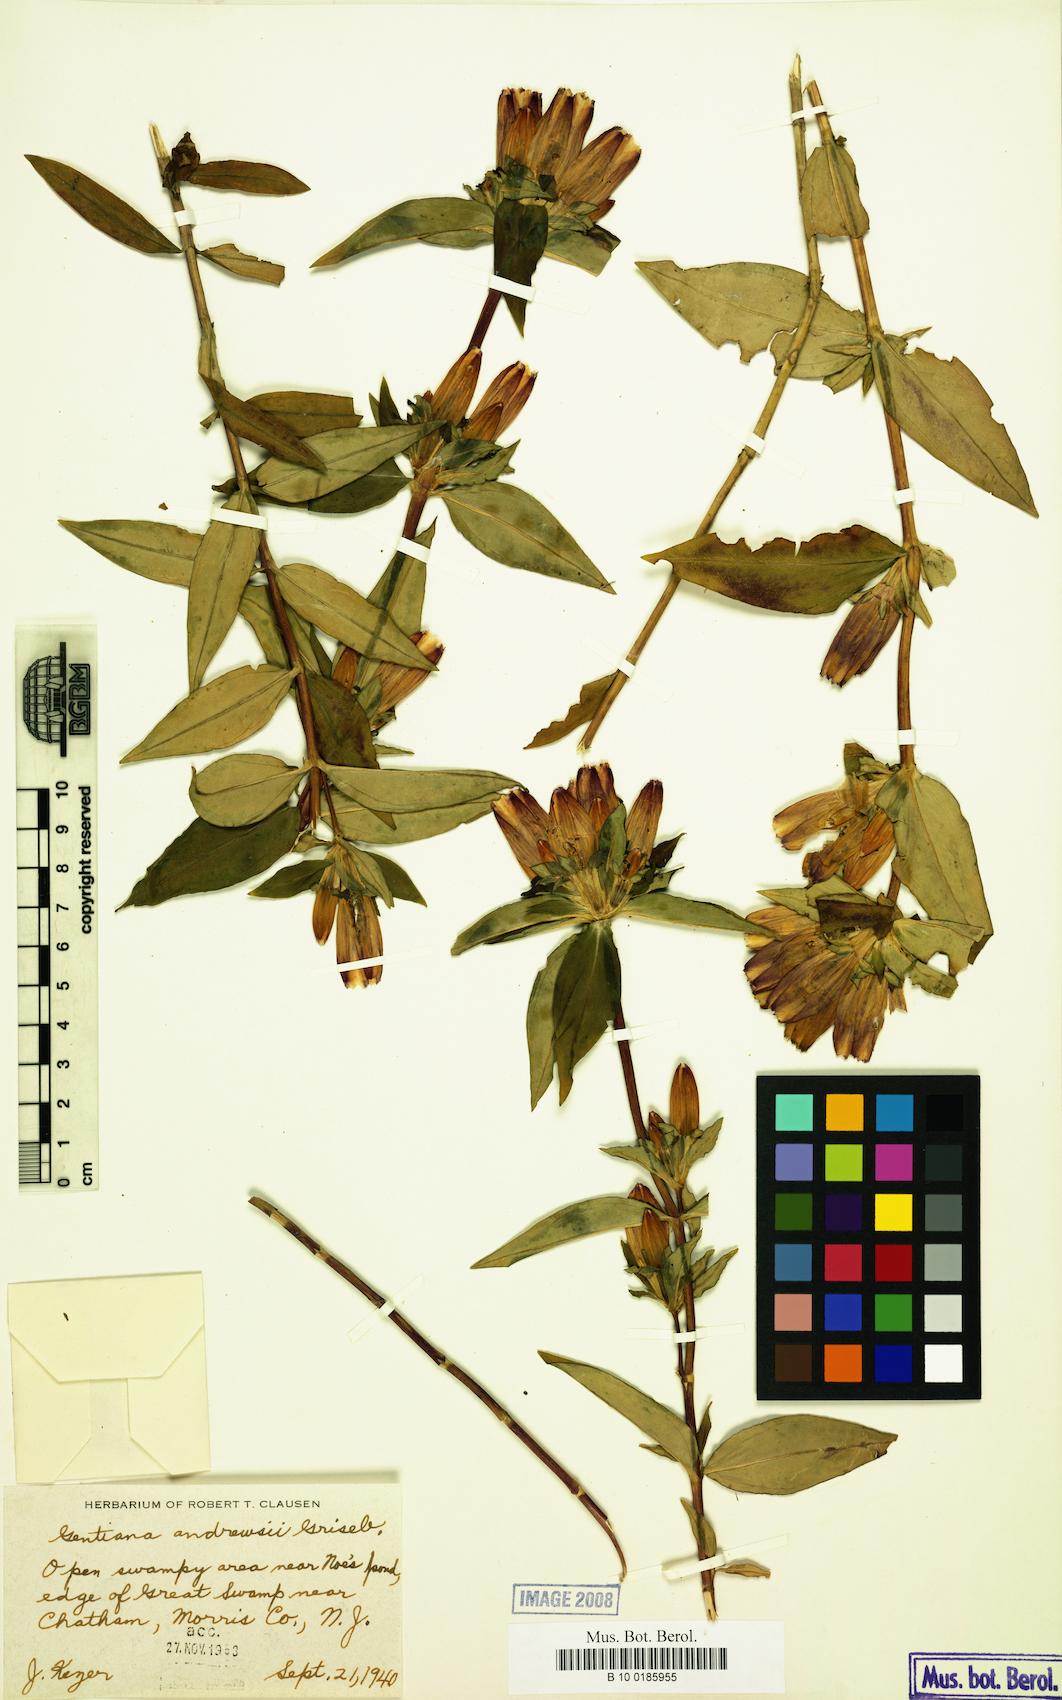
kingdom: Plantae
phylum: Tracheophyta
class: Magnoliopsida
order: Gentianales
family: Gentianaceae
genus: Gentiana
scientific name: Gentiana andrewsii
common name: Bottle gentian
